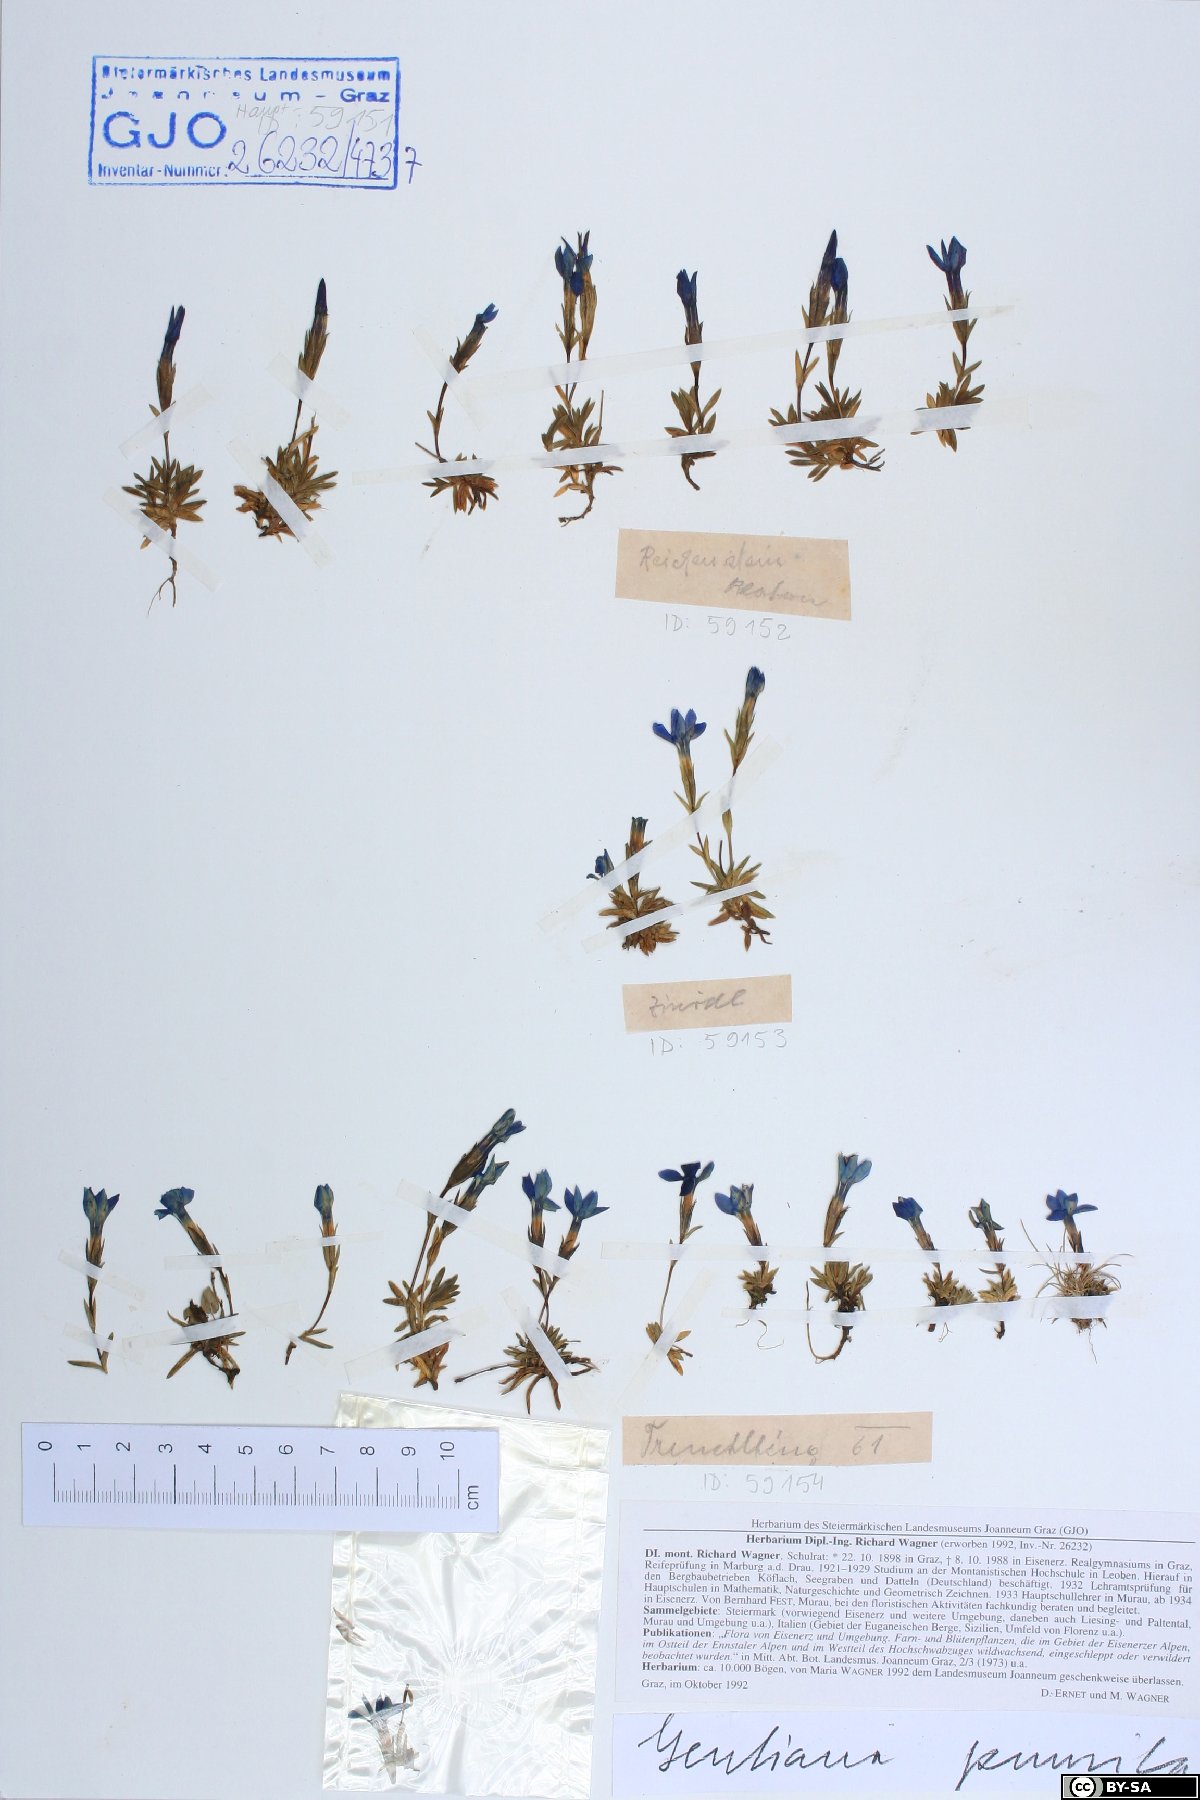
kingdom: Plantae
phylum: Tracheophyta
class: Magnoliopsida
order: Gentianales
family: Gentianaceae
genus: Gentiana
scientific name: Gentiana pumila
